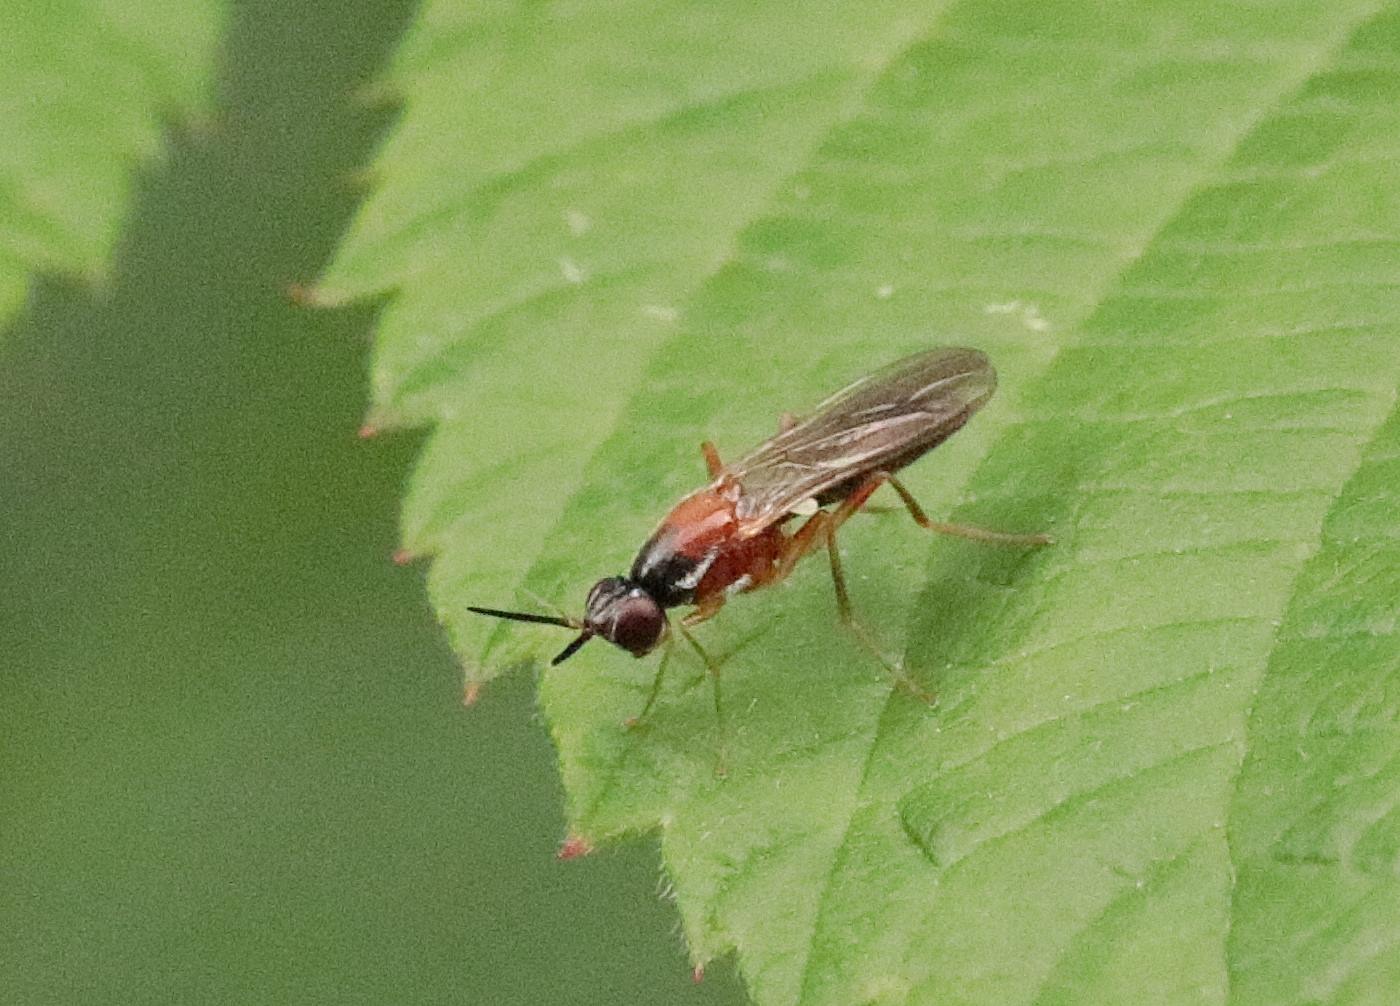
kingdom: Animalia
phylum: Arthropoda
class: Insecta
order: Diptera
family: Psilidae
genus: Loxocera
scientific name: Loxocera
